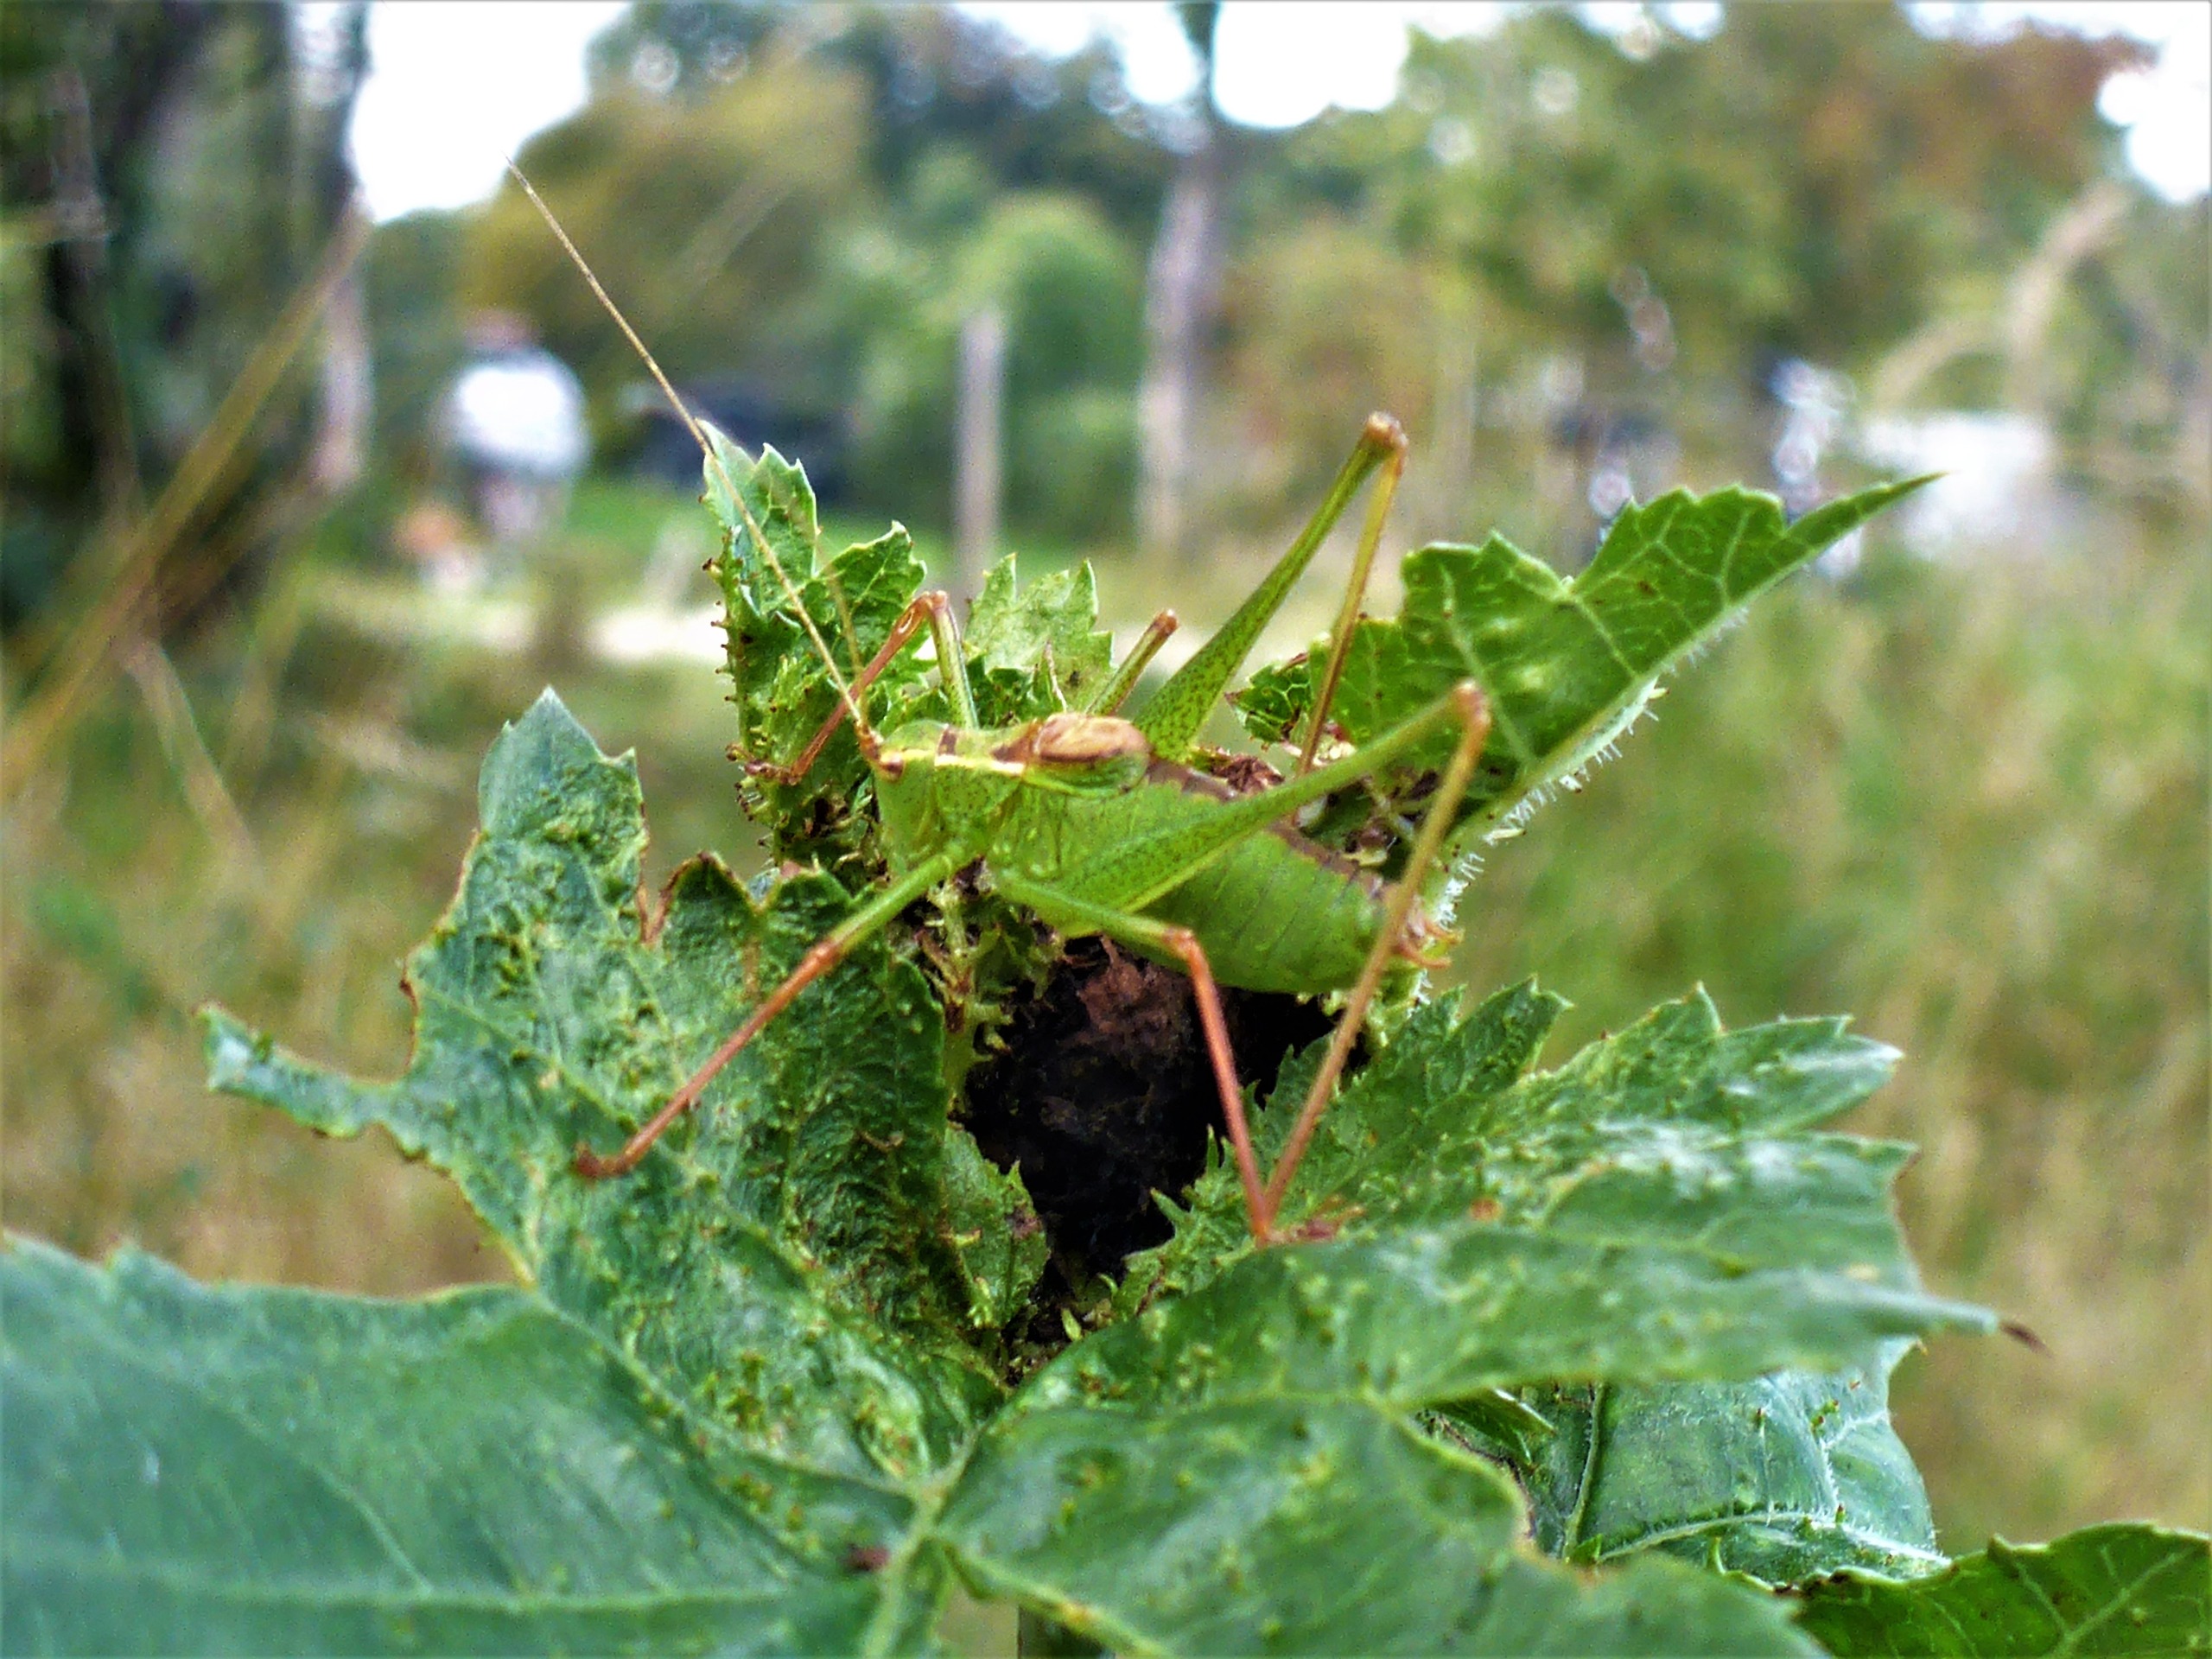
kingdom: Animalia
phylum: Arthropoda
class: Insecta
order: Orthoptera
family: Tettigoniidae
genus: Leptophyes
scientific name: Leptophyes punctatissima
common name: Krumknivgræshoppe
